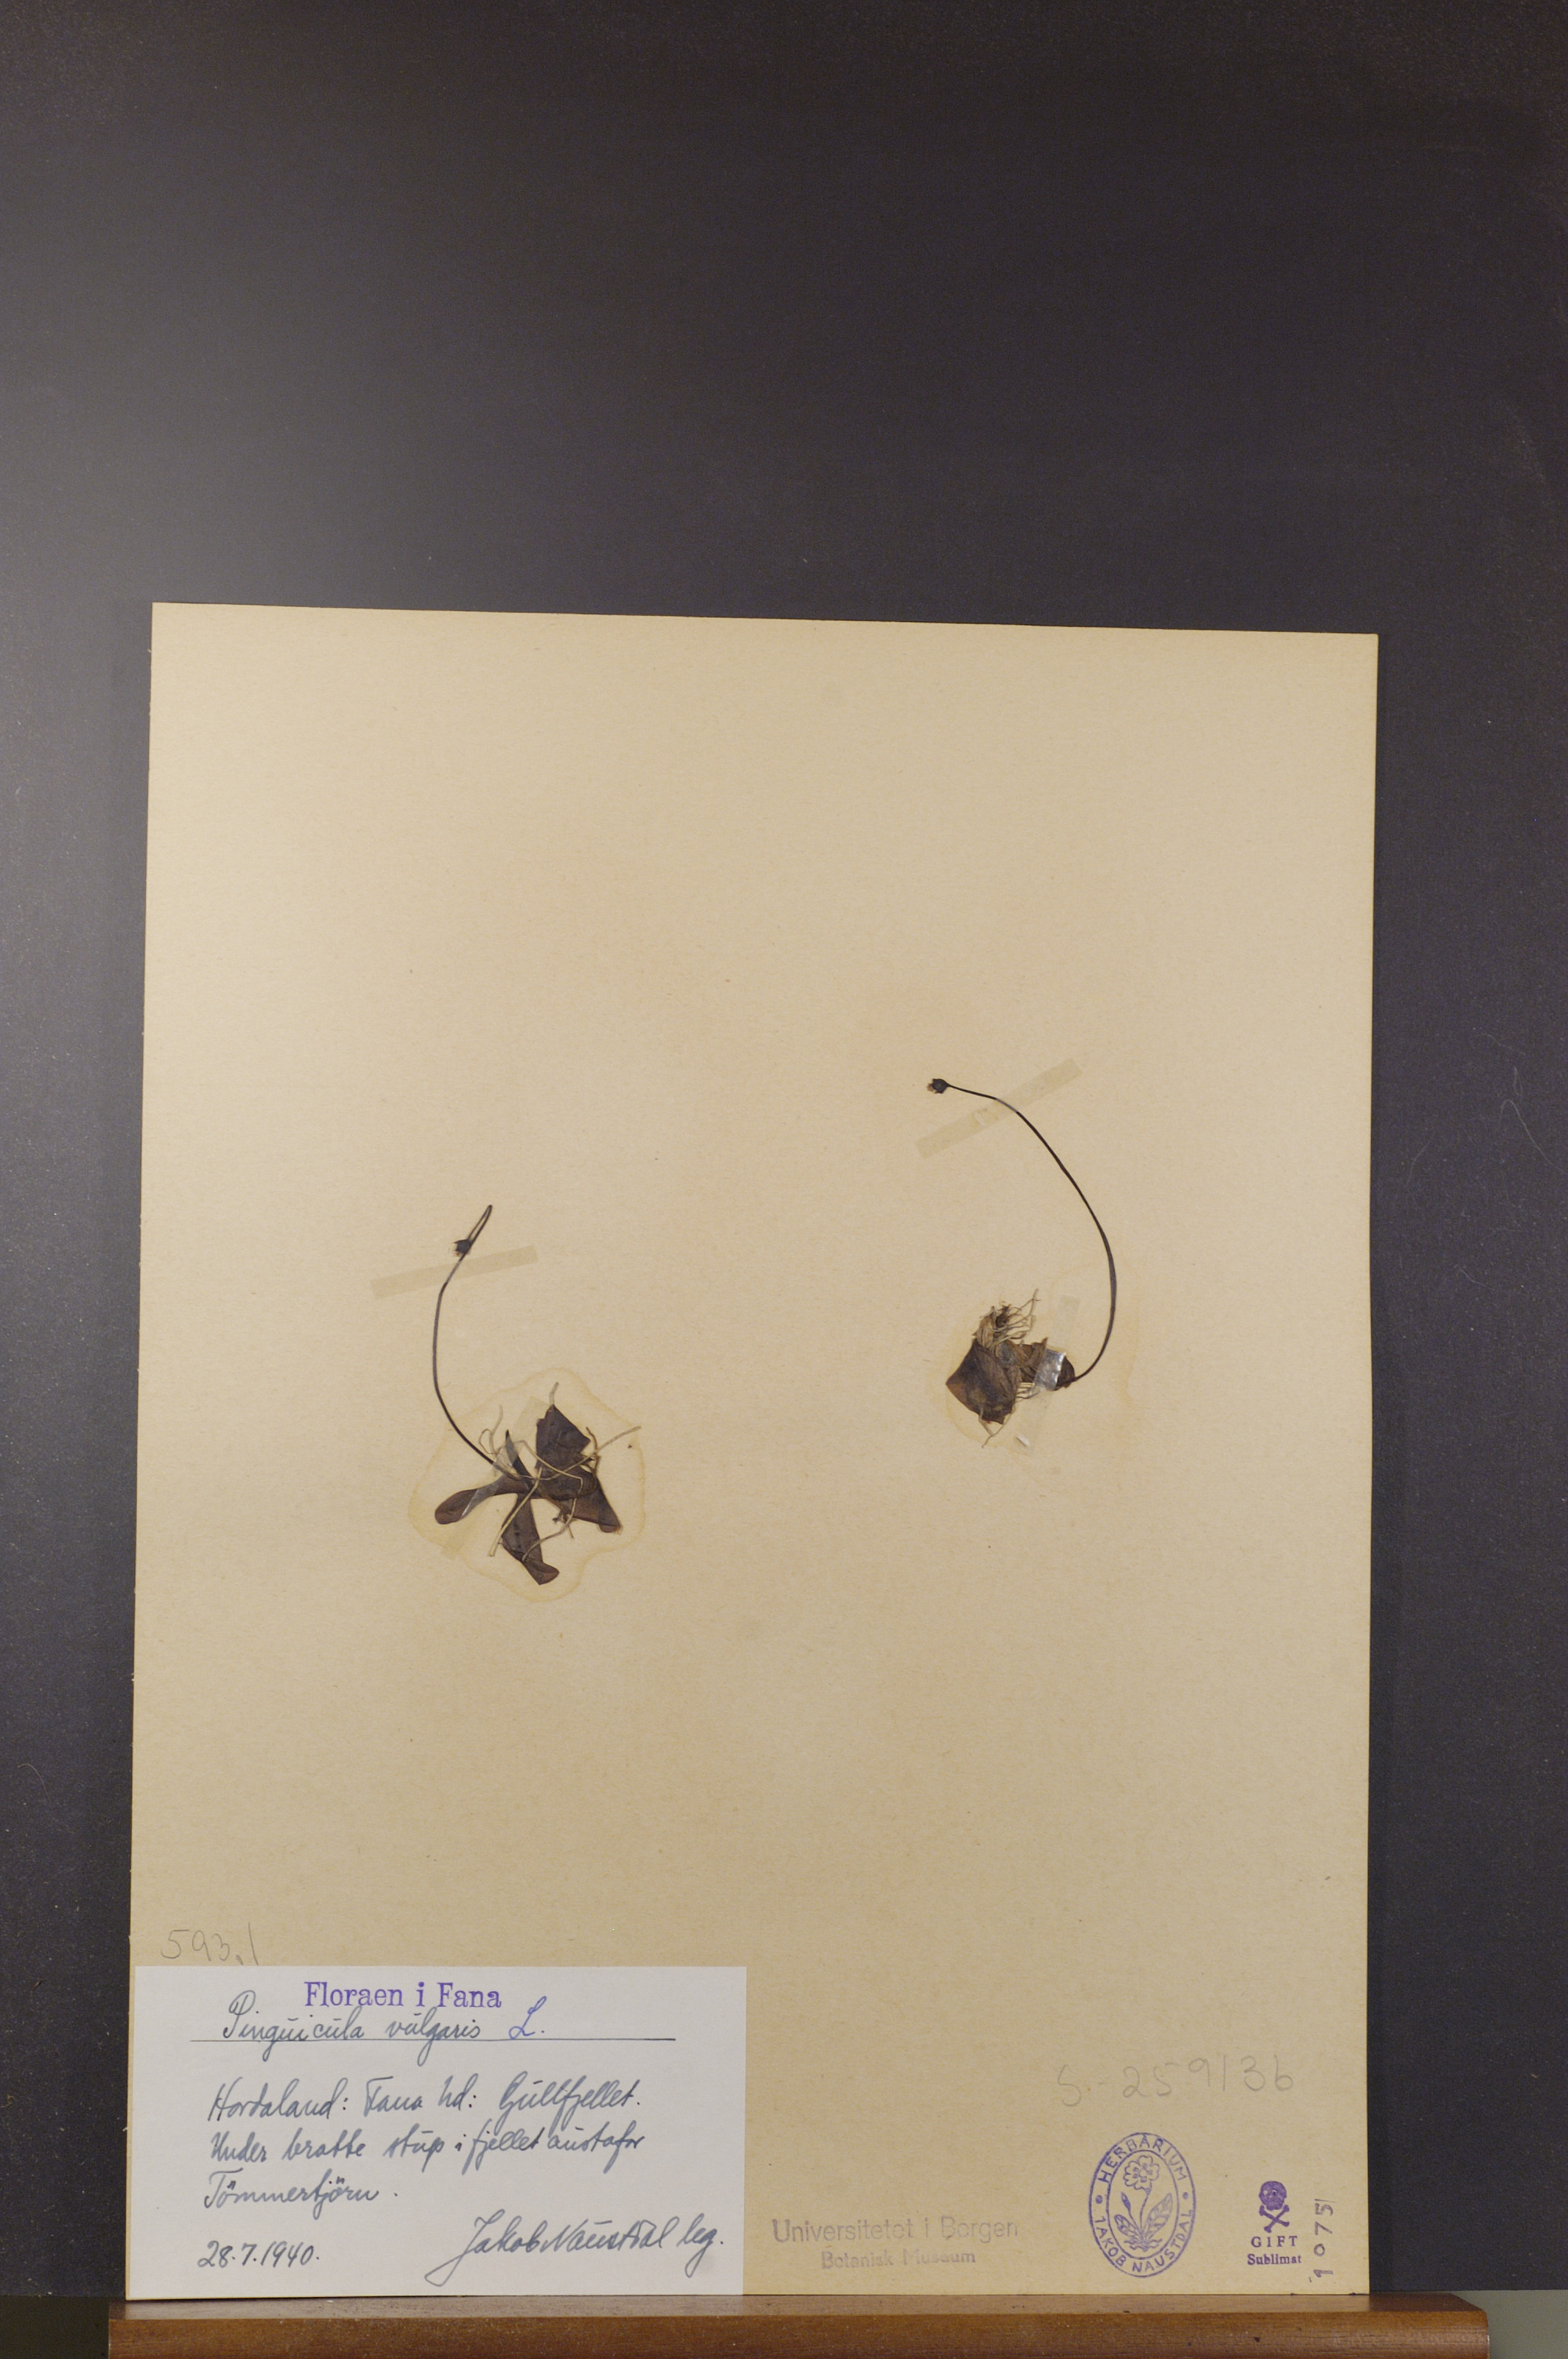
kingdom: Plantae
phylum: Tracheophyta
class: Magnoliopsida
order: Lamiales
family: Lentibulariaceae
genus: Pinguicula
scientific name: Pinguicula vulgaris
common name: Common butterwort
